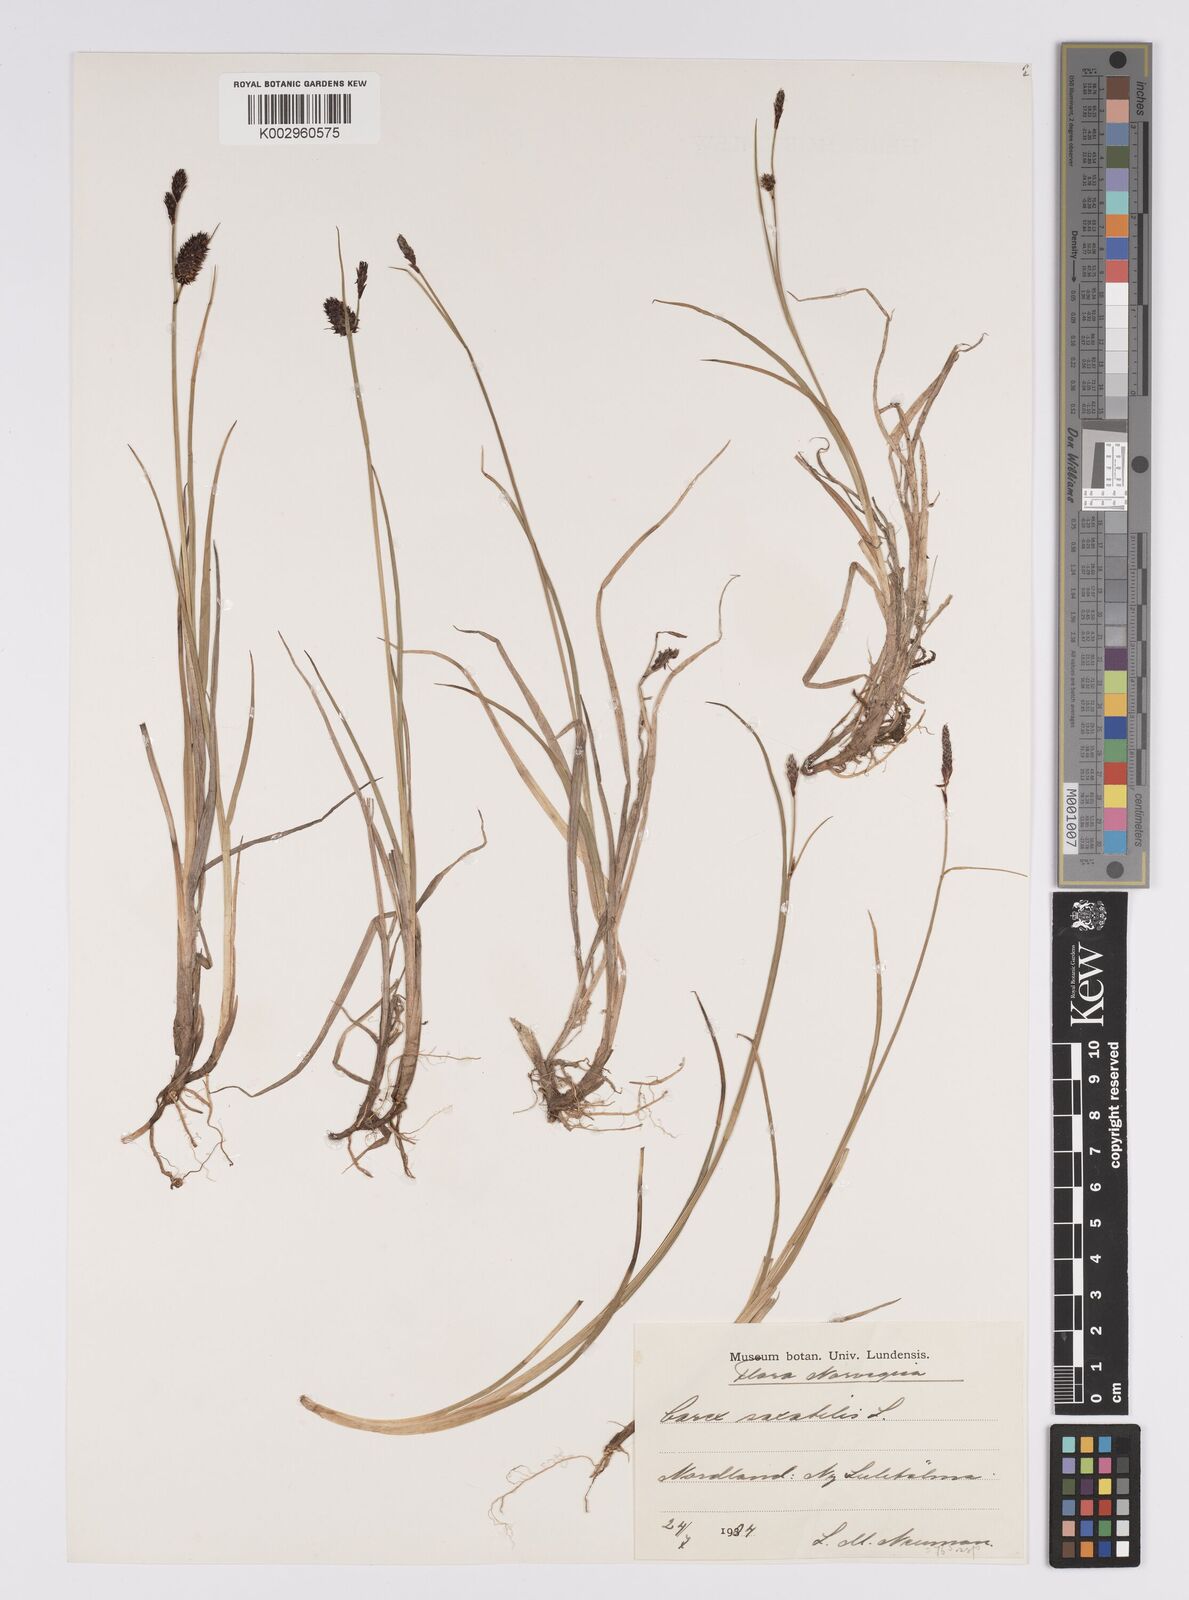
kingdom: Plantae
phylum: Tracheophyta
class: Liliopsida
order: Poales
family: Cyperaceae
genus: Carex
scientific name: Carex saxatilis
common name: Russet sedge
